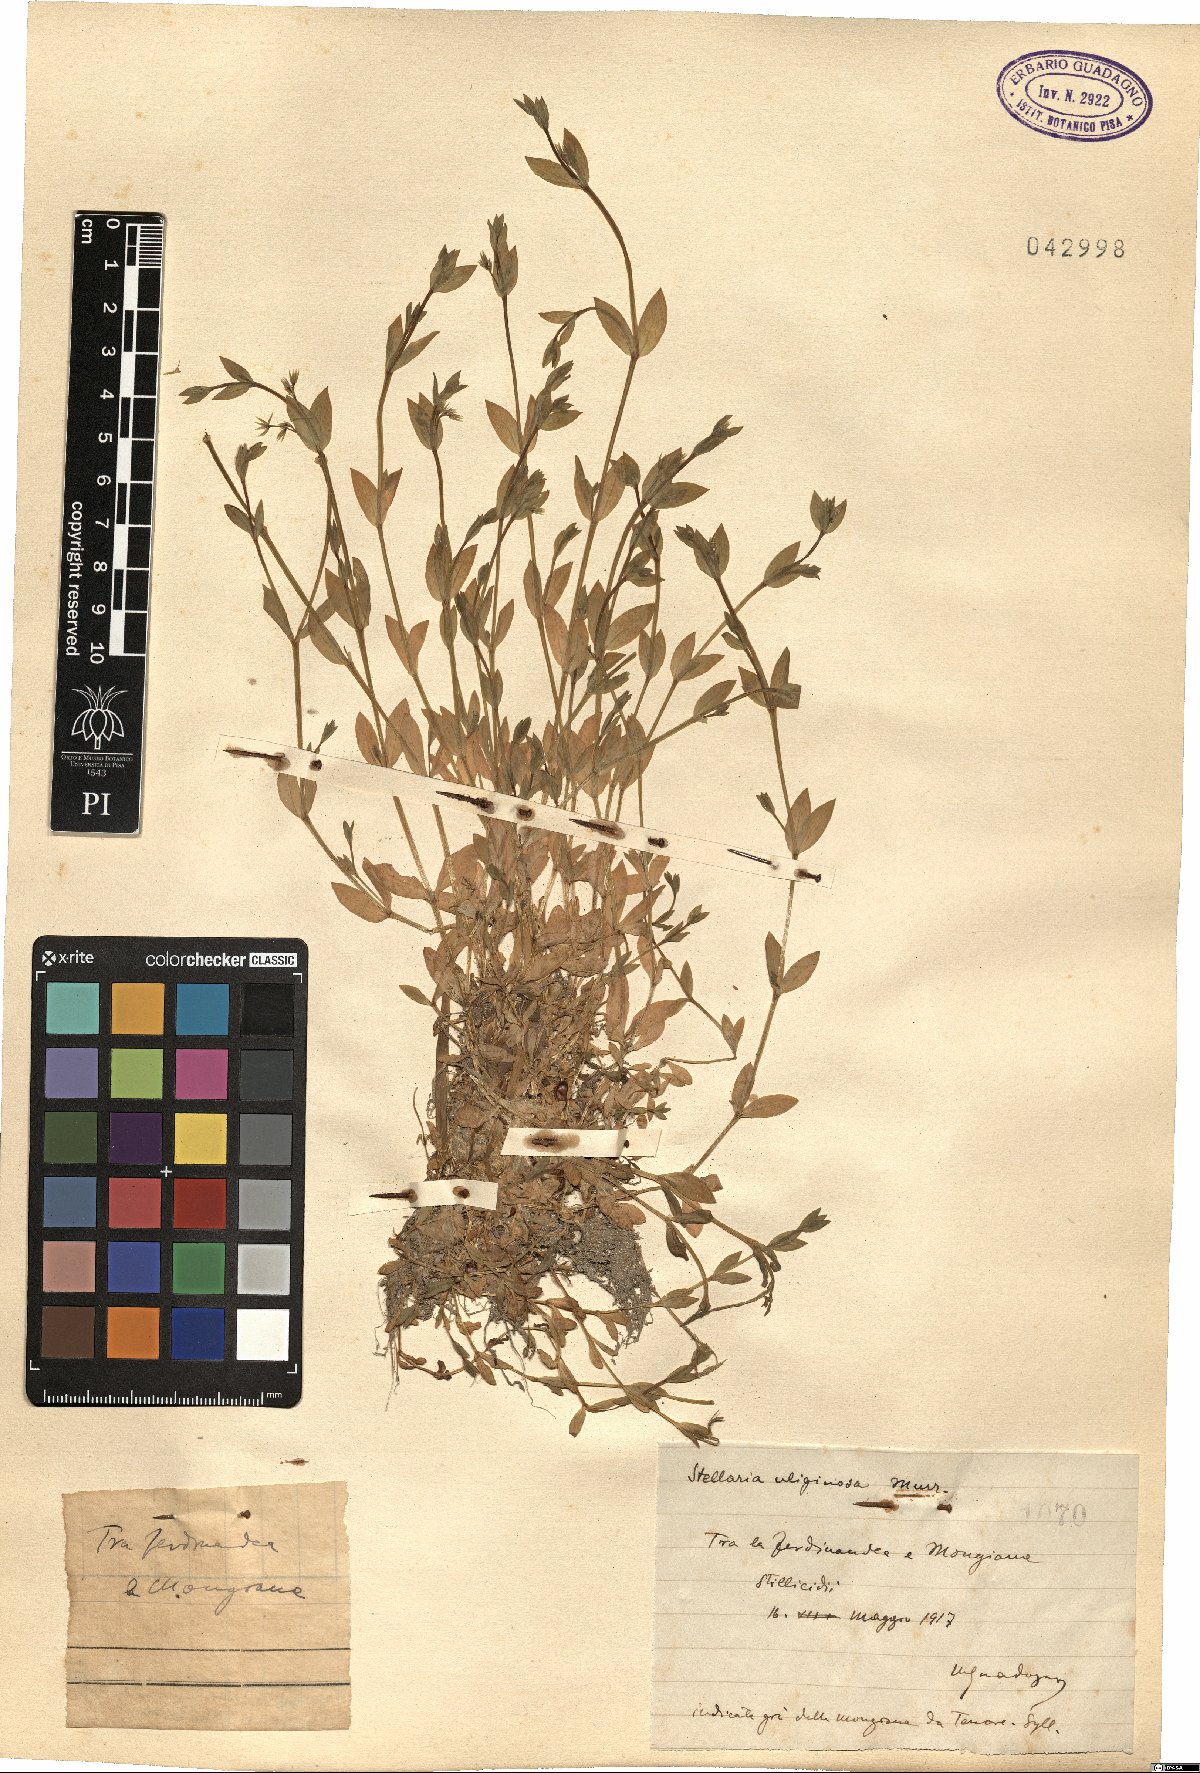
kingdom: Plantae
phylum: Tracheophyta
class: Magnoliopsida
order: Caryophyllales
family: Caryophyllaceae
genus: Stellaria
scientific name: Stellaria alsine
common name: Bog stitchwort
